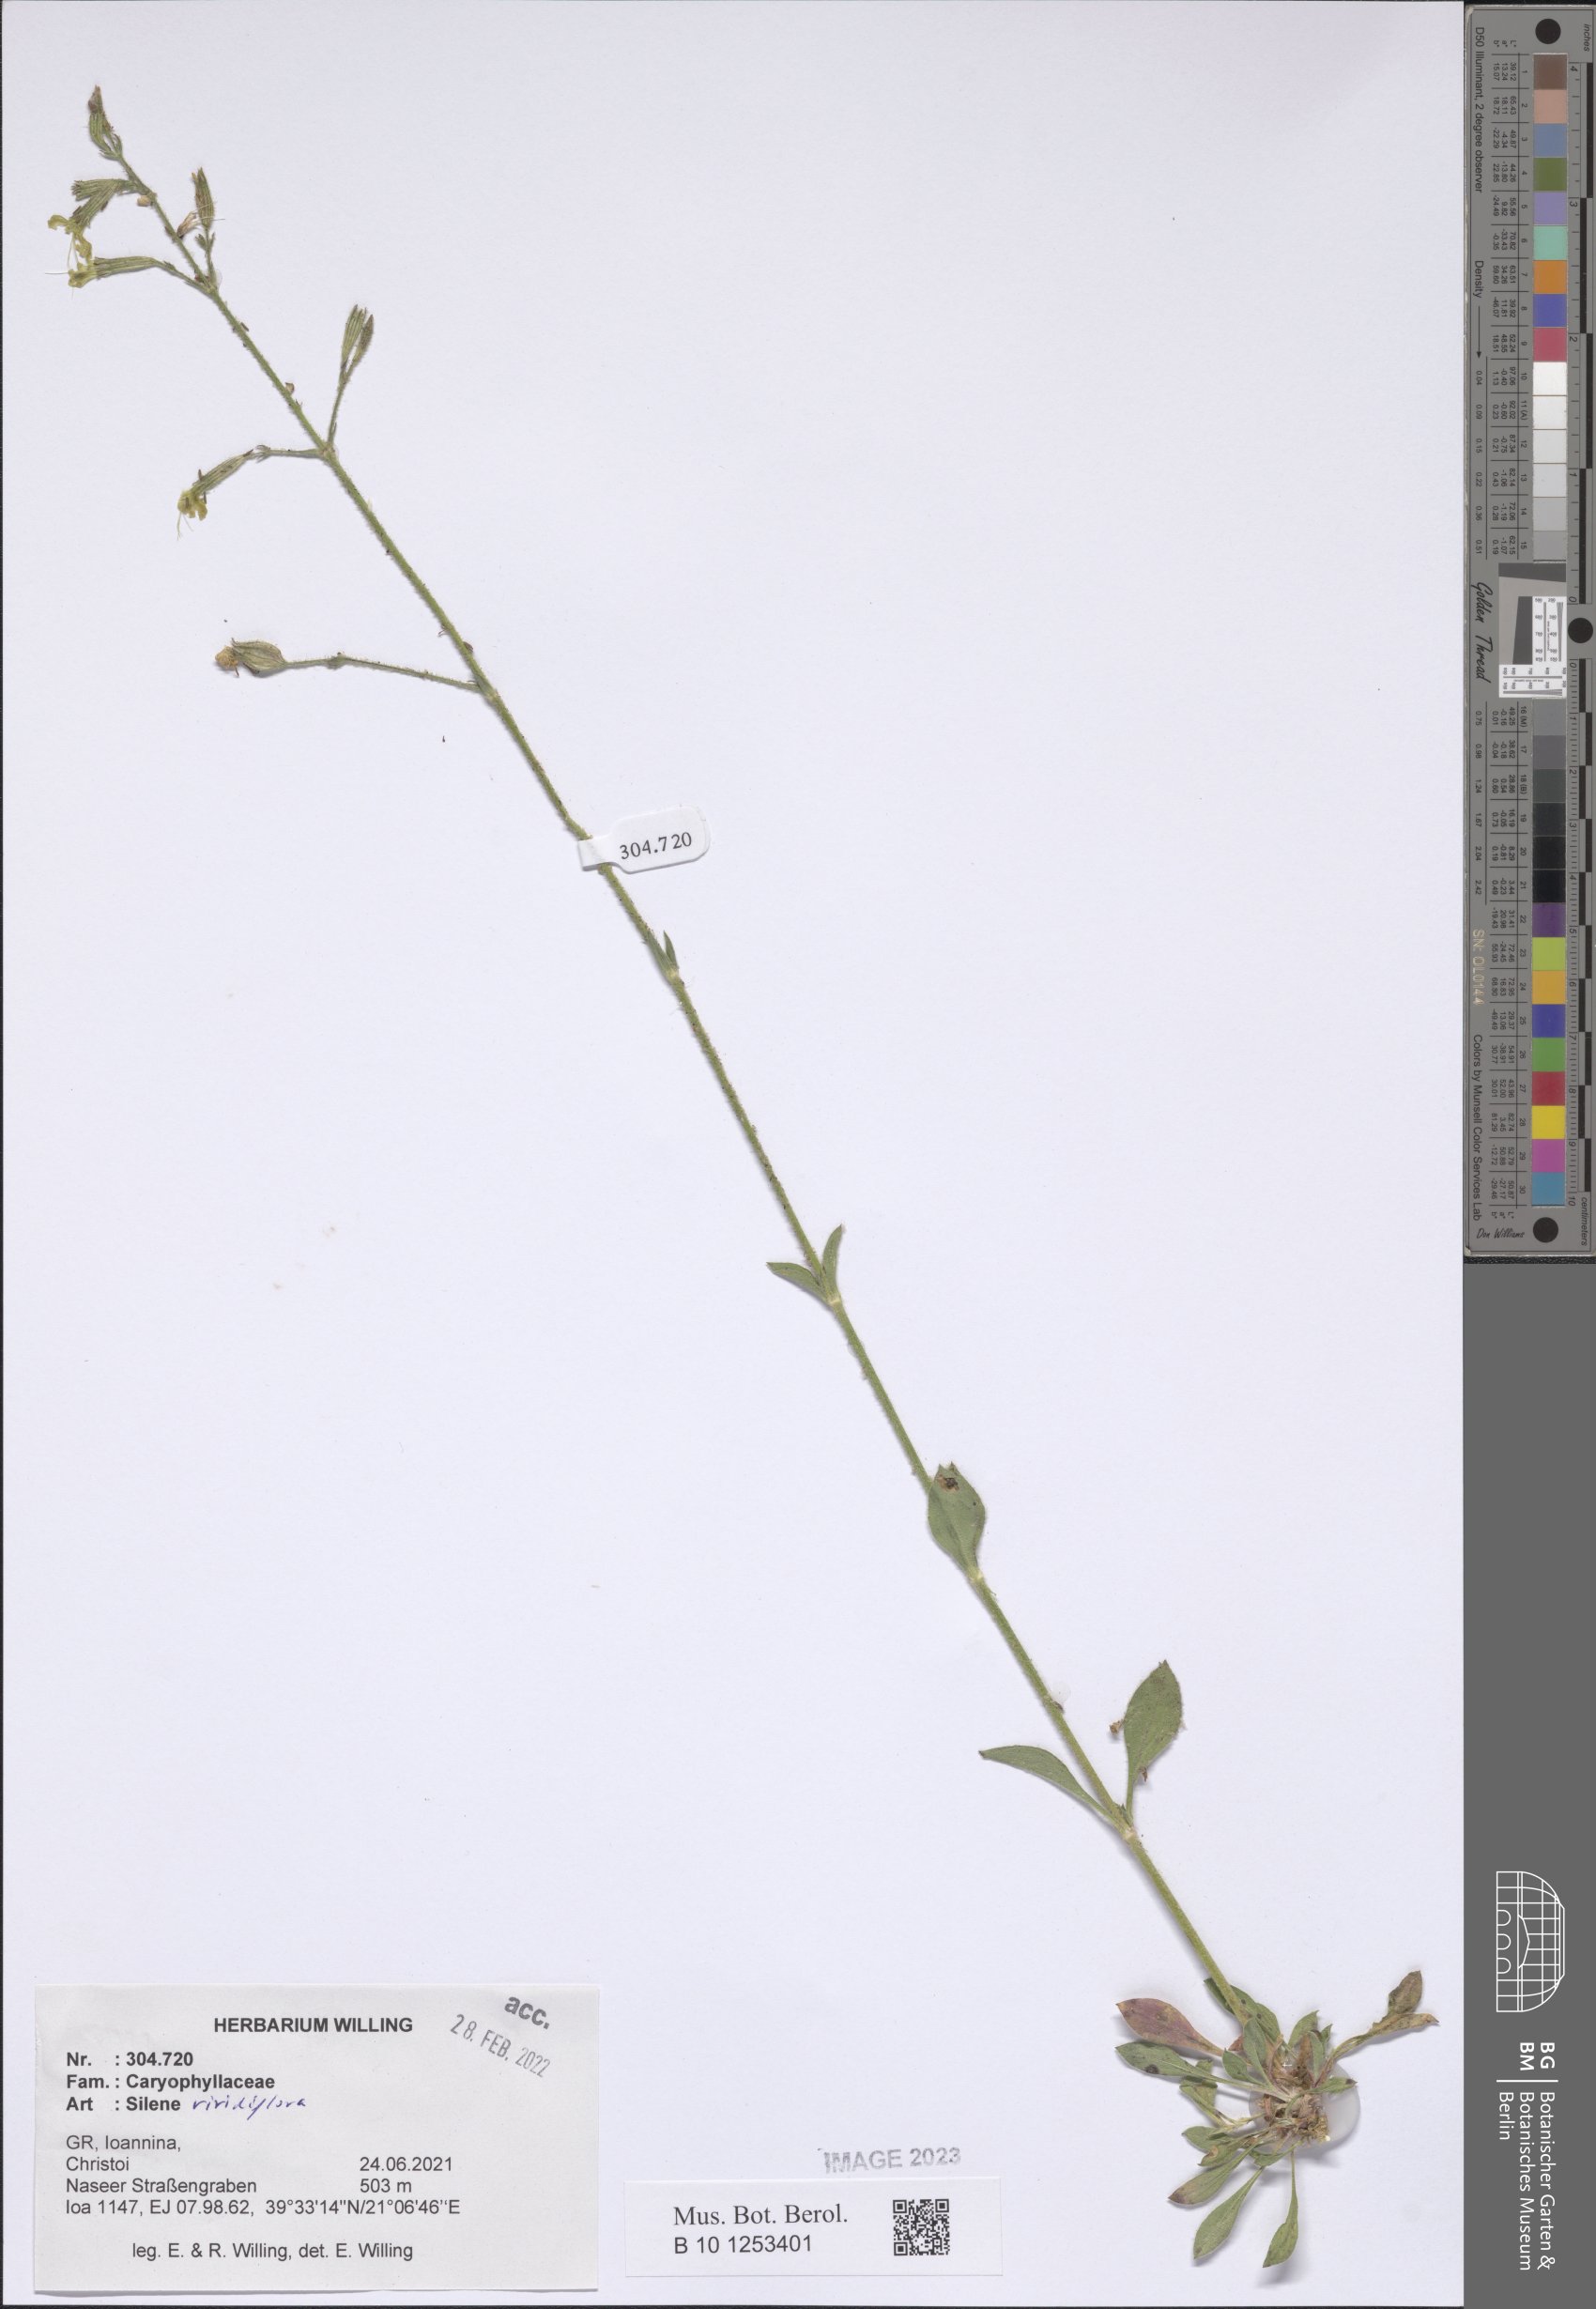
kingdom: Plantae
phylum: Tracheophyta
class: Magnoliopsida
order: Caryophyllales
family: Caryophyllaceae
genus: Silene
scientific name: Silene viridiflora
